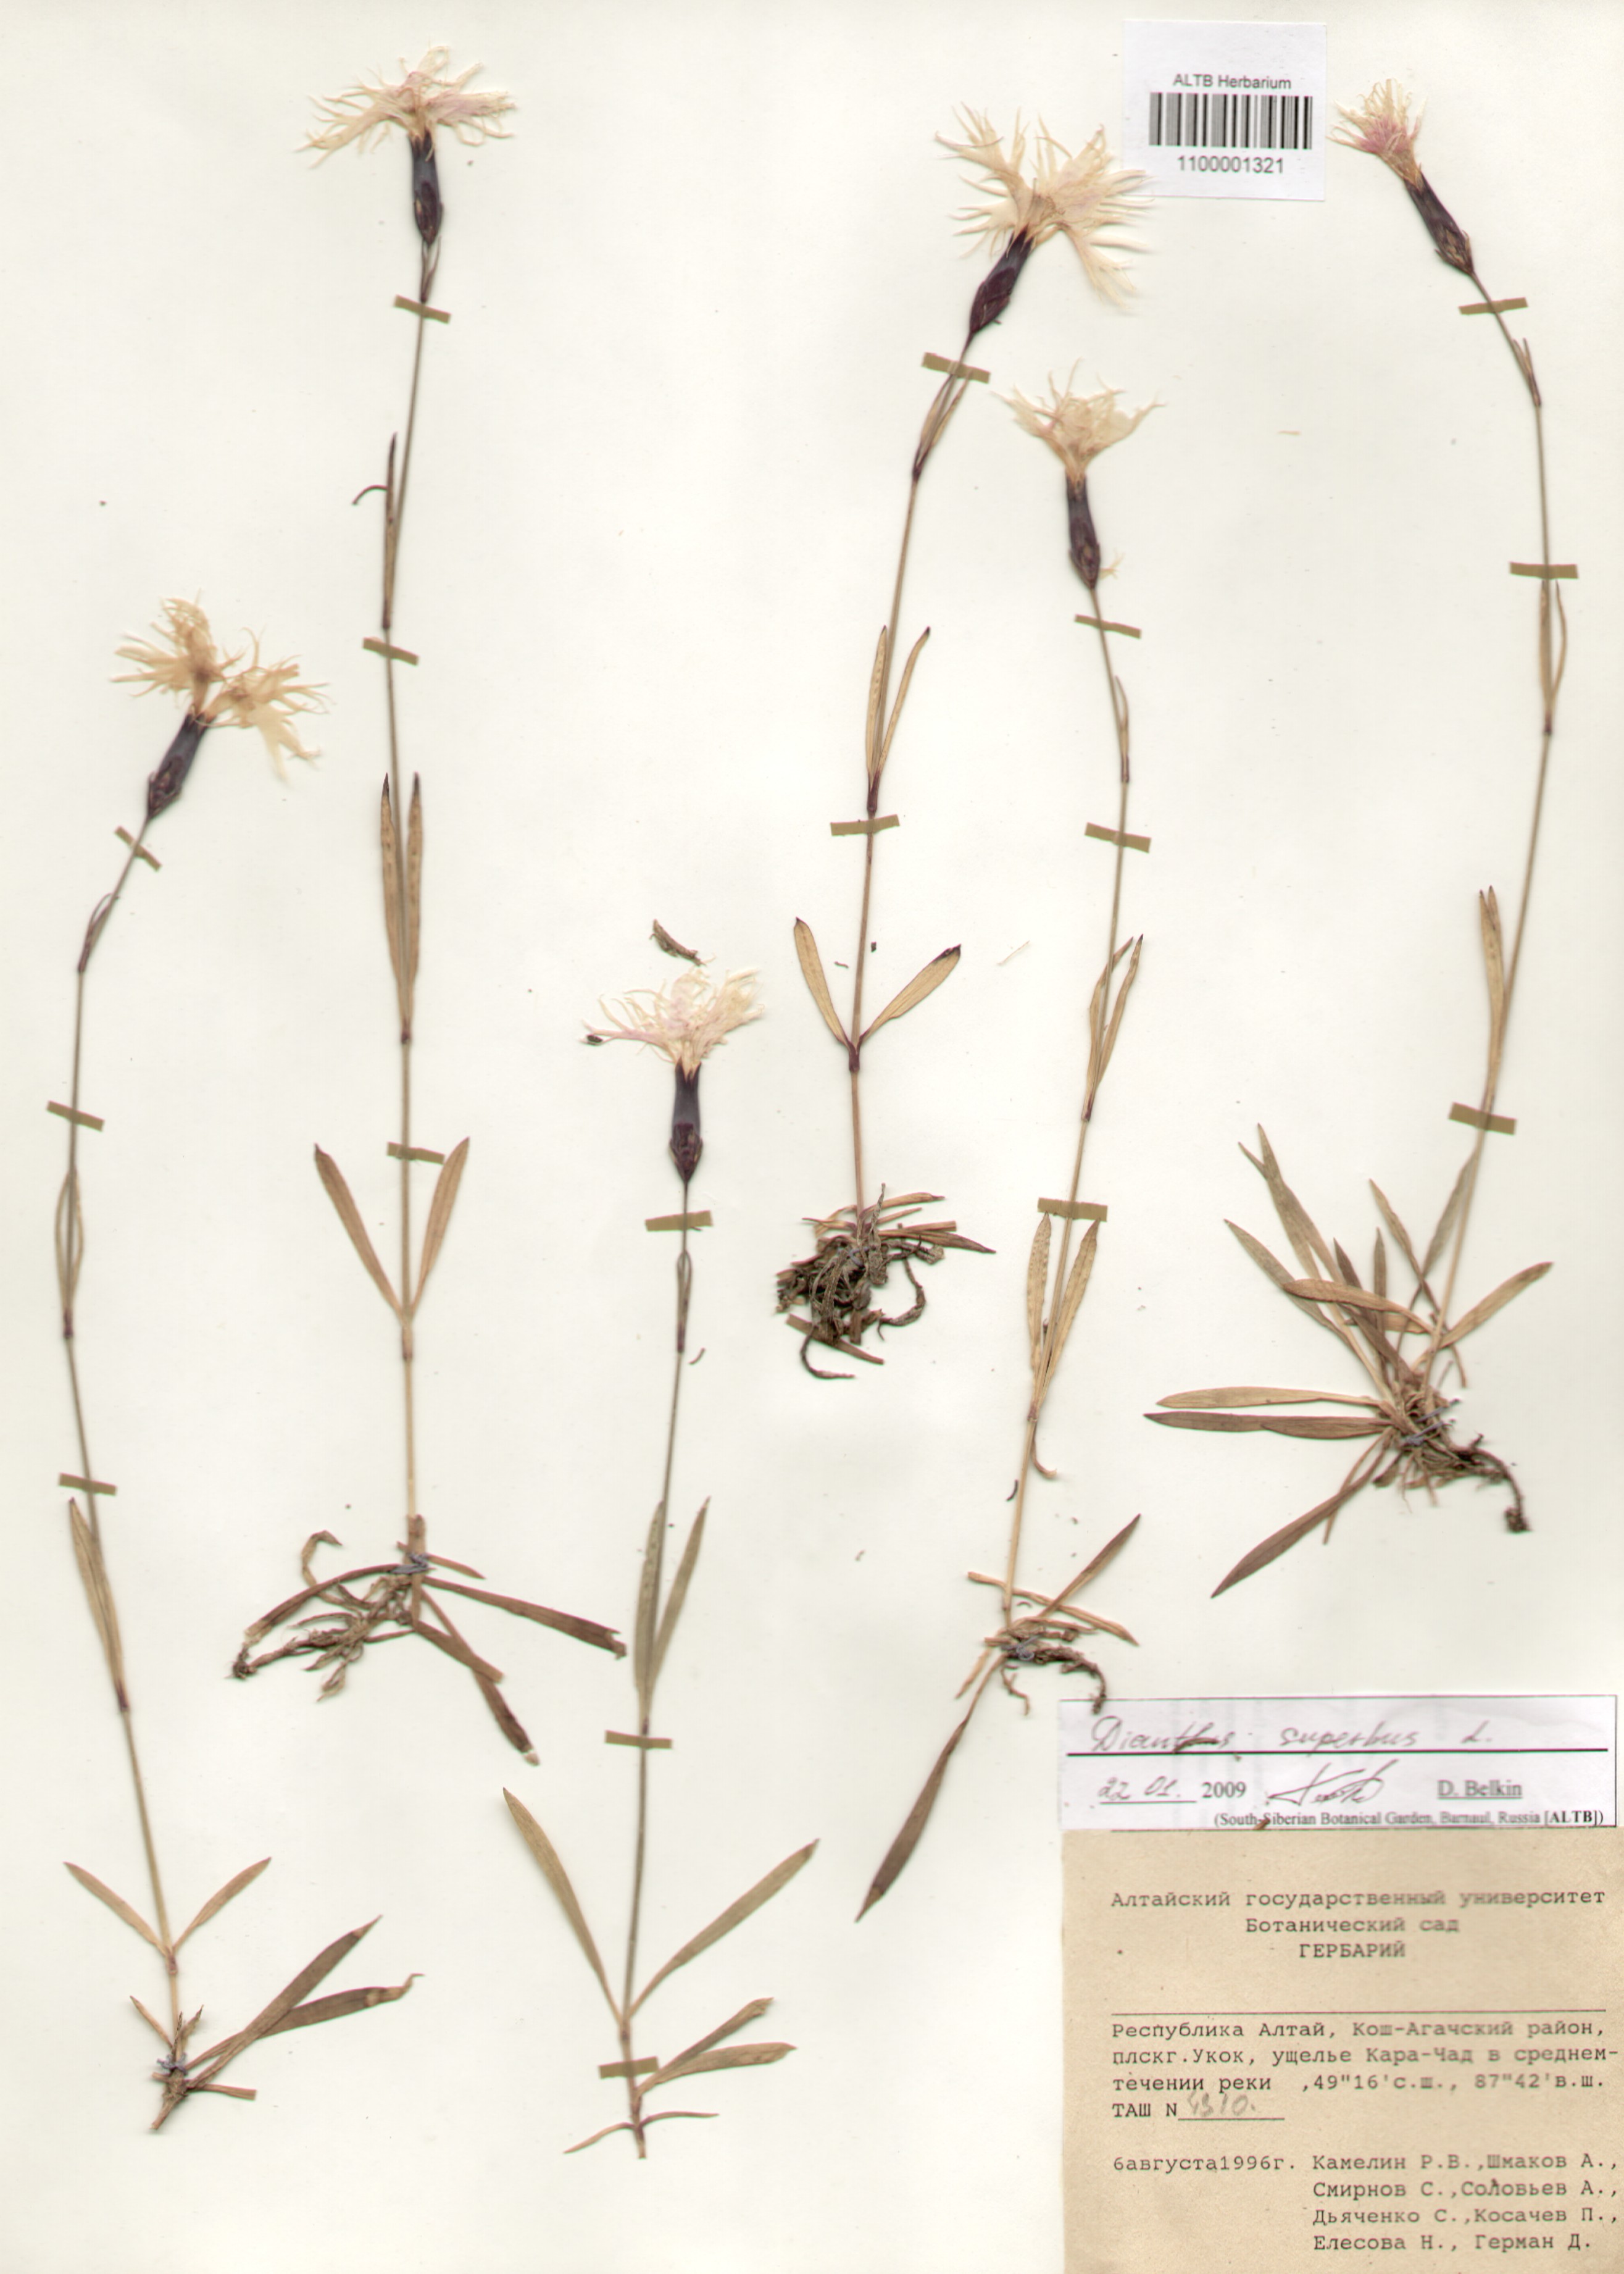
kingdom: Plantae
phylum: Tracheophyta
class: Magnoliopsida
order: Caryophyllales
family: Caryophyllaceae
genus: Dianthus
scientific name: Dianthus superbus
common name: Fringed pink
